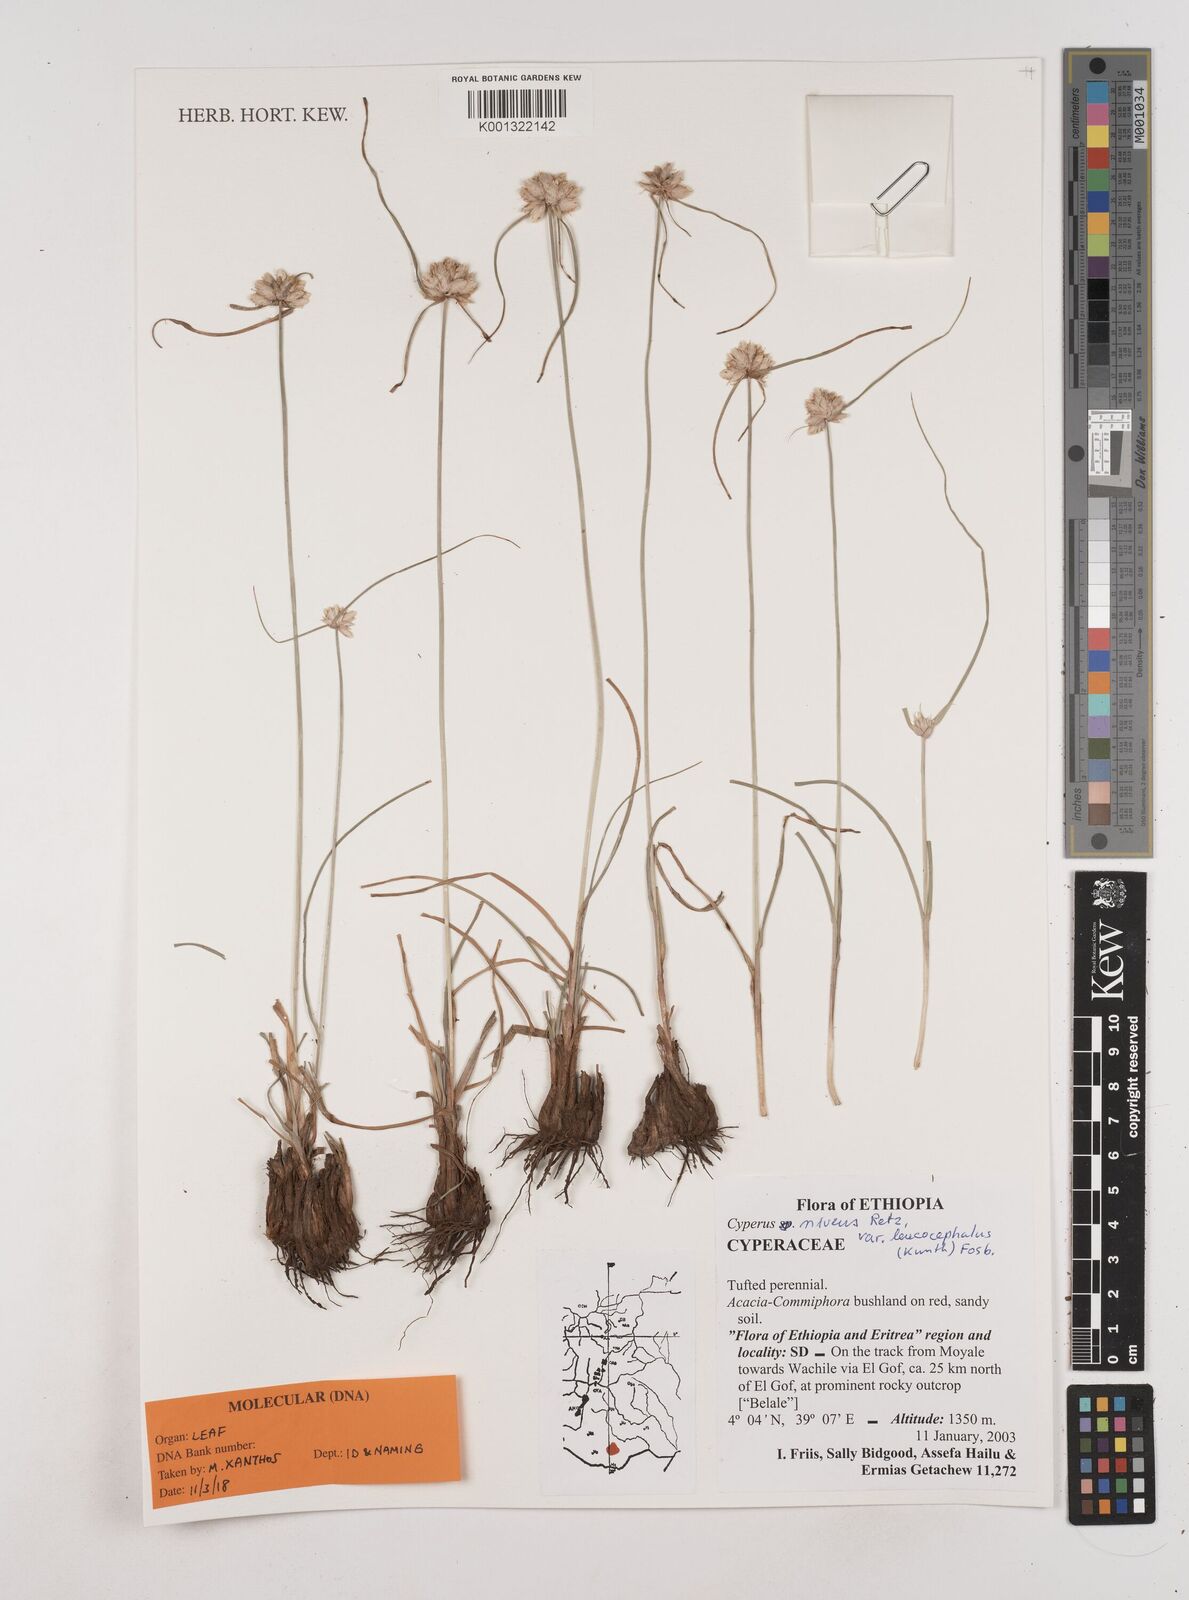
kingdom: Plantae
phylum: Tracheophyta
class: Liliopsida
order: Poales
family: Cyperaceae
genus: Cyperus
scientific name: Cyperus niveus
